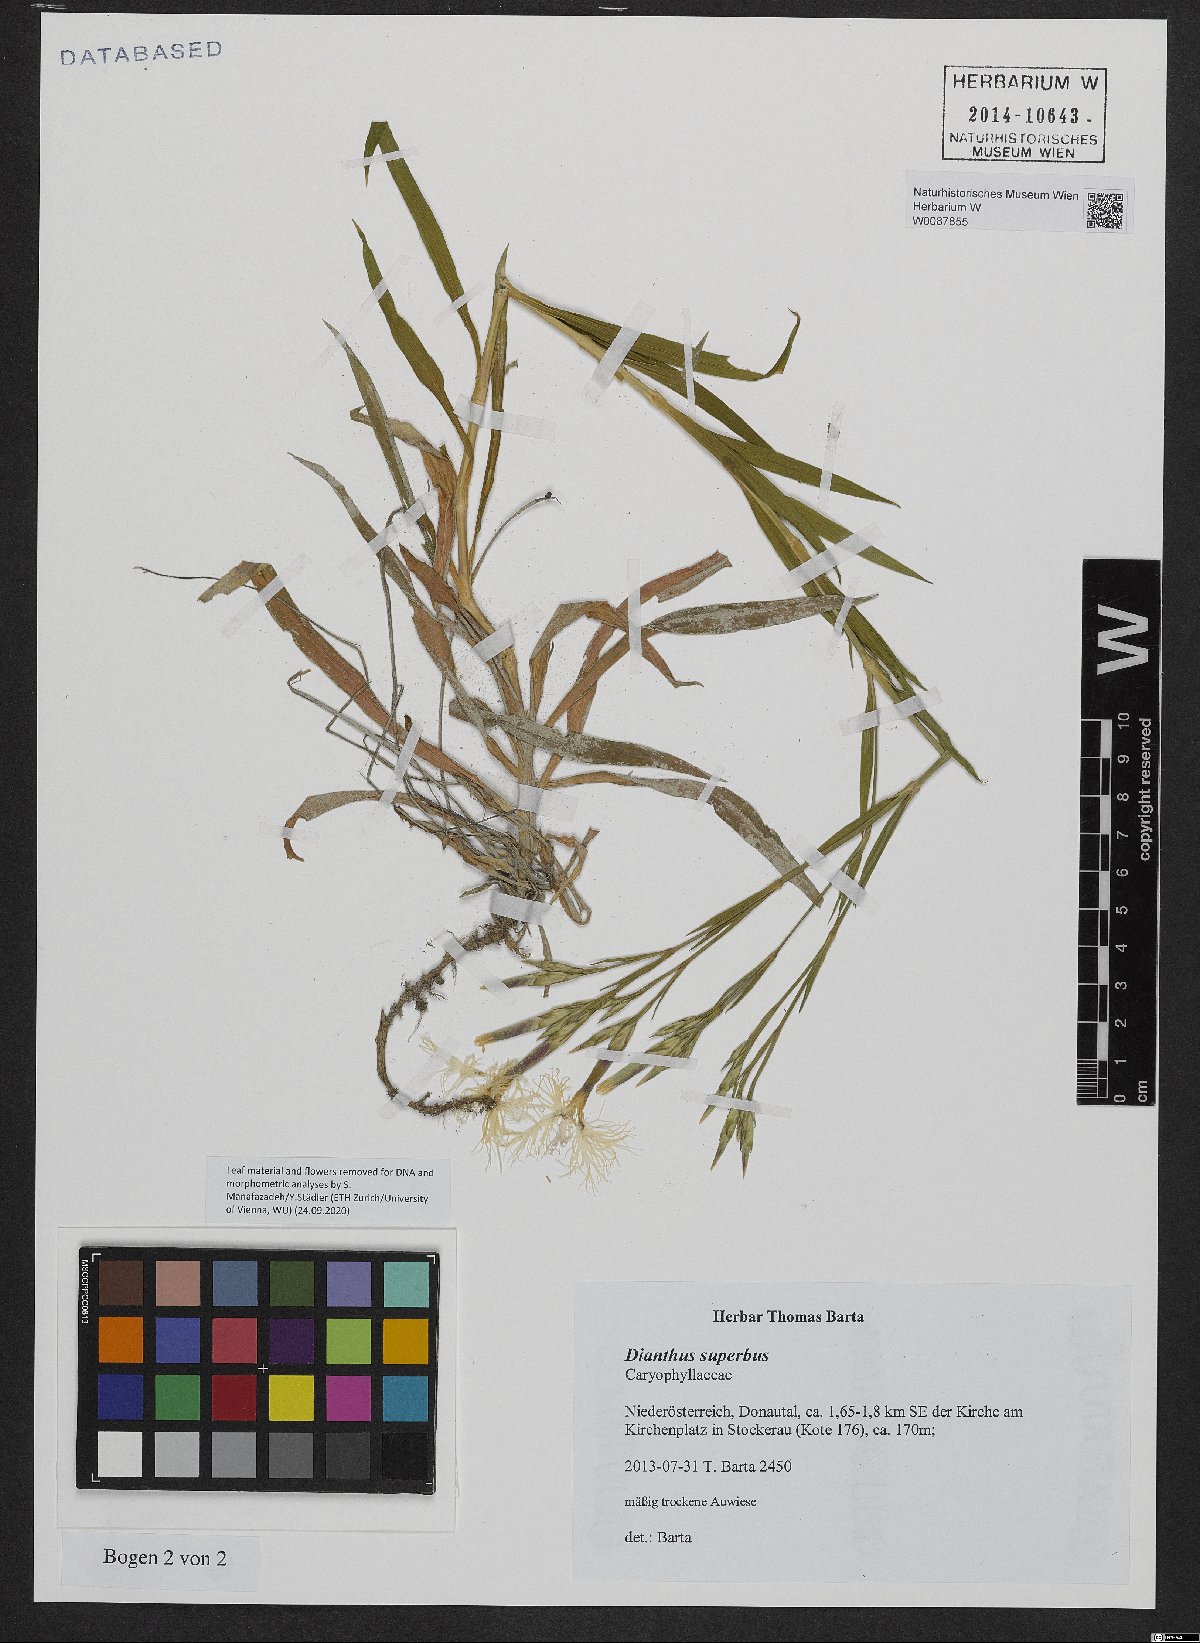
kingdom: Plantae
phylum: Tracheophyta
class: Magnoliopsida
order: Caryophyllales
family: Caryophyllaceae
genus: Dianthus
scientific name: Dianthus superbus
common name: Fringed pink
